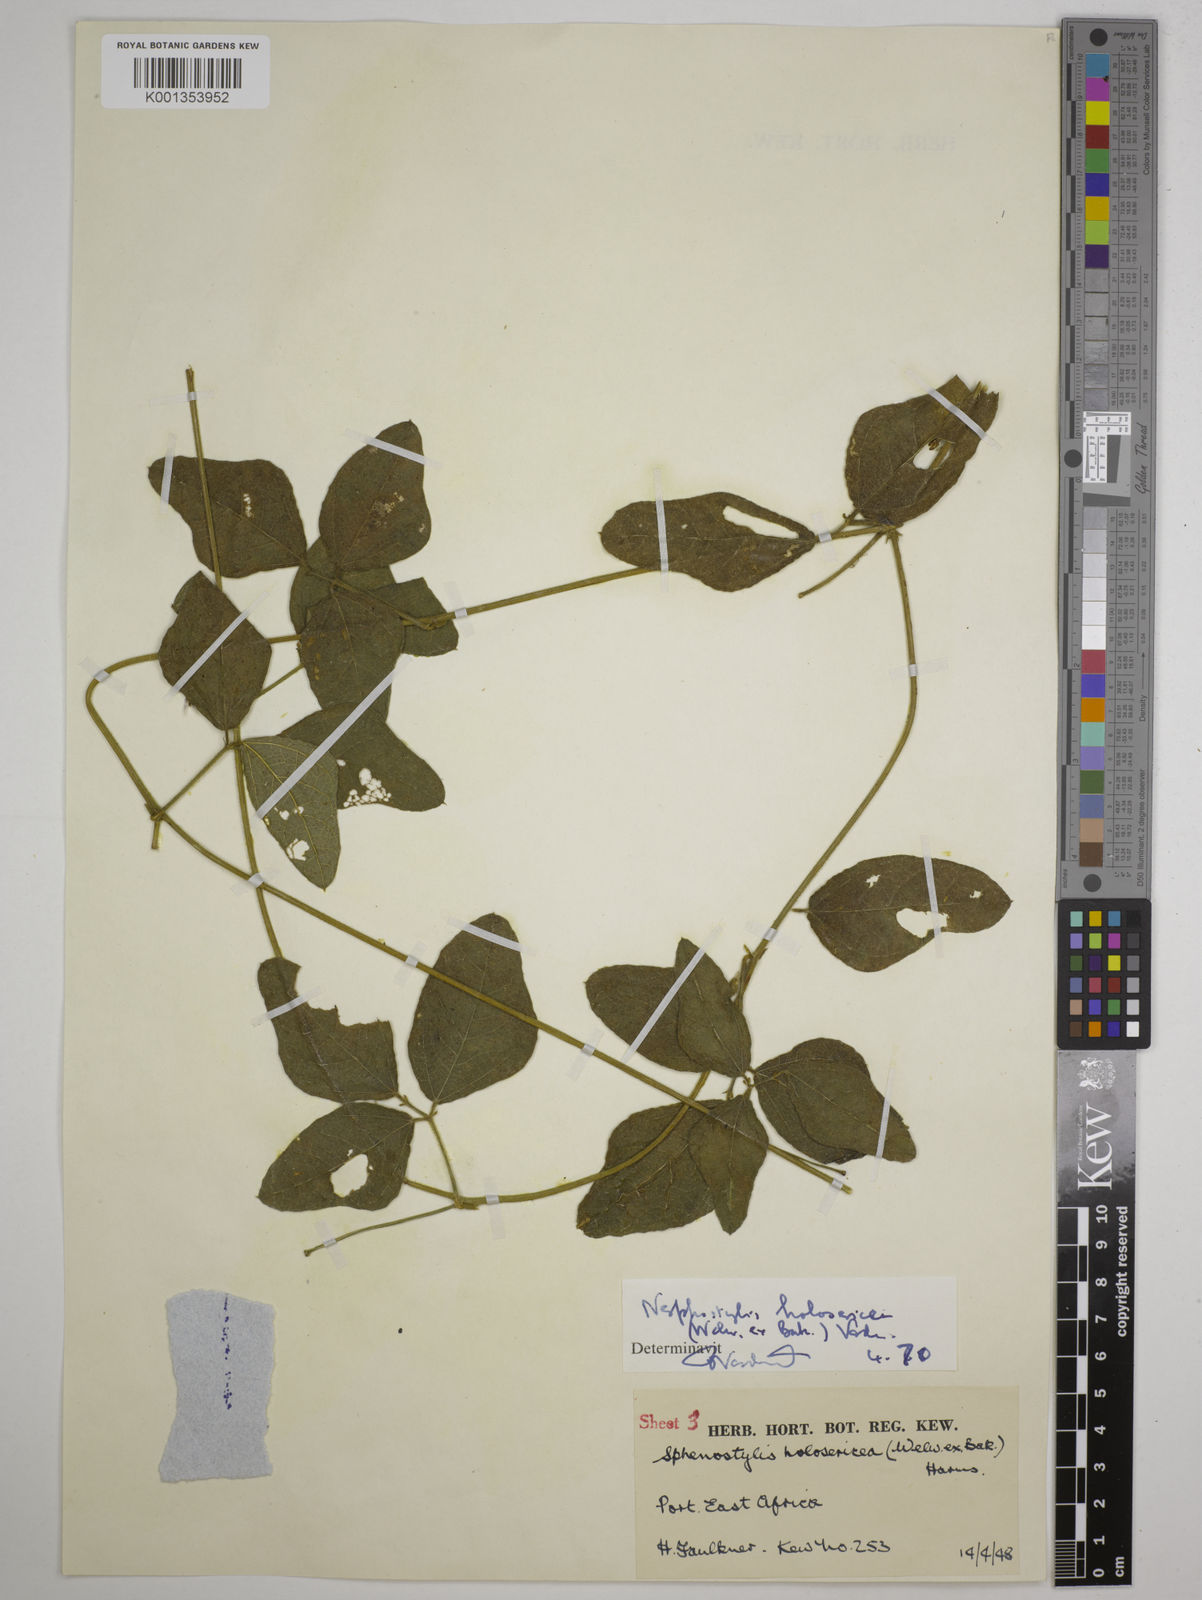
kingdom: Plantae
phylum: Tracheophyta
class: Magnoliopsida
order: Fabales
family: Fabaceae
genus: Nesphostylis
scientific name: Nesphostylis holosericea
